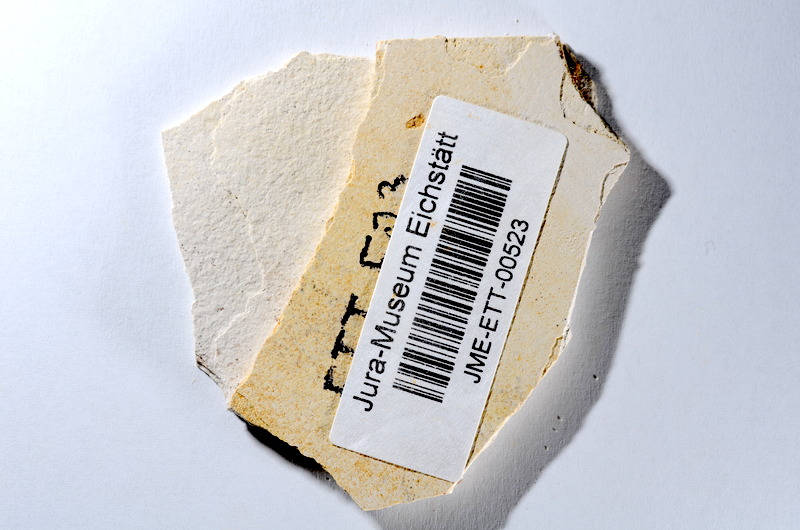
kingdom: Animalia
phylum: Chordata
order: Salmoniformes
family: Orthogonikleithridae
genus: Orthogonikleithrus
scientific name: Orthogonikleithrus hoelli
